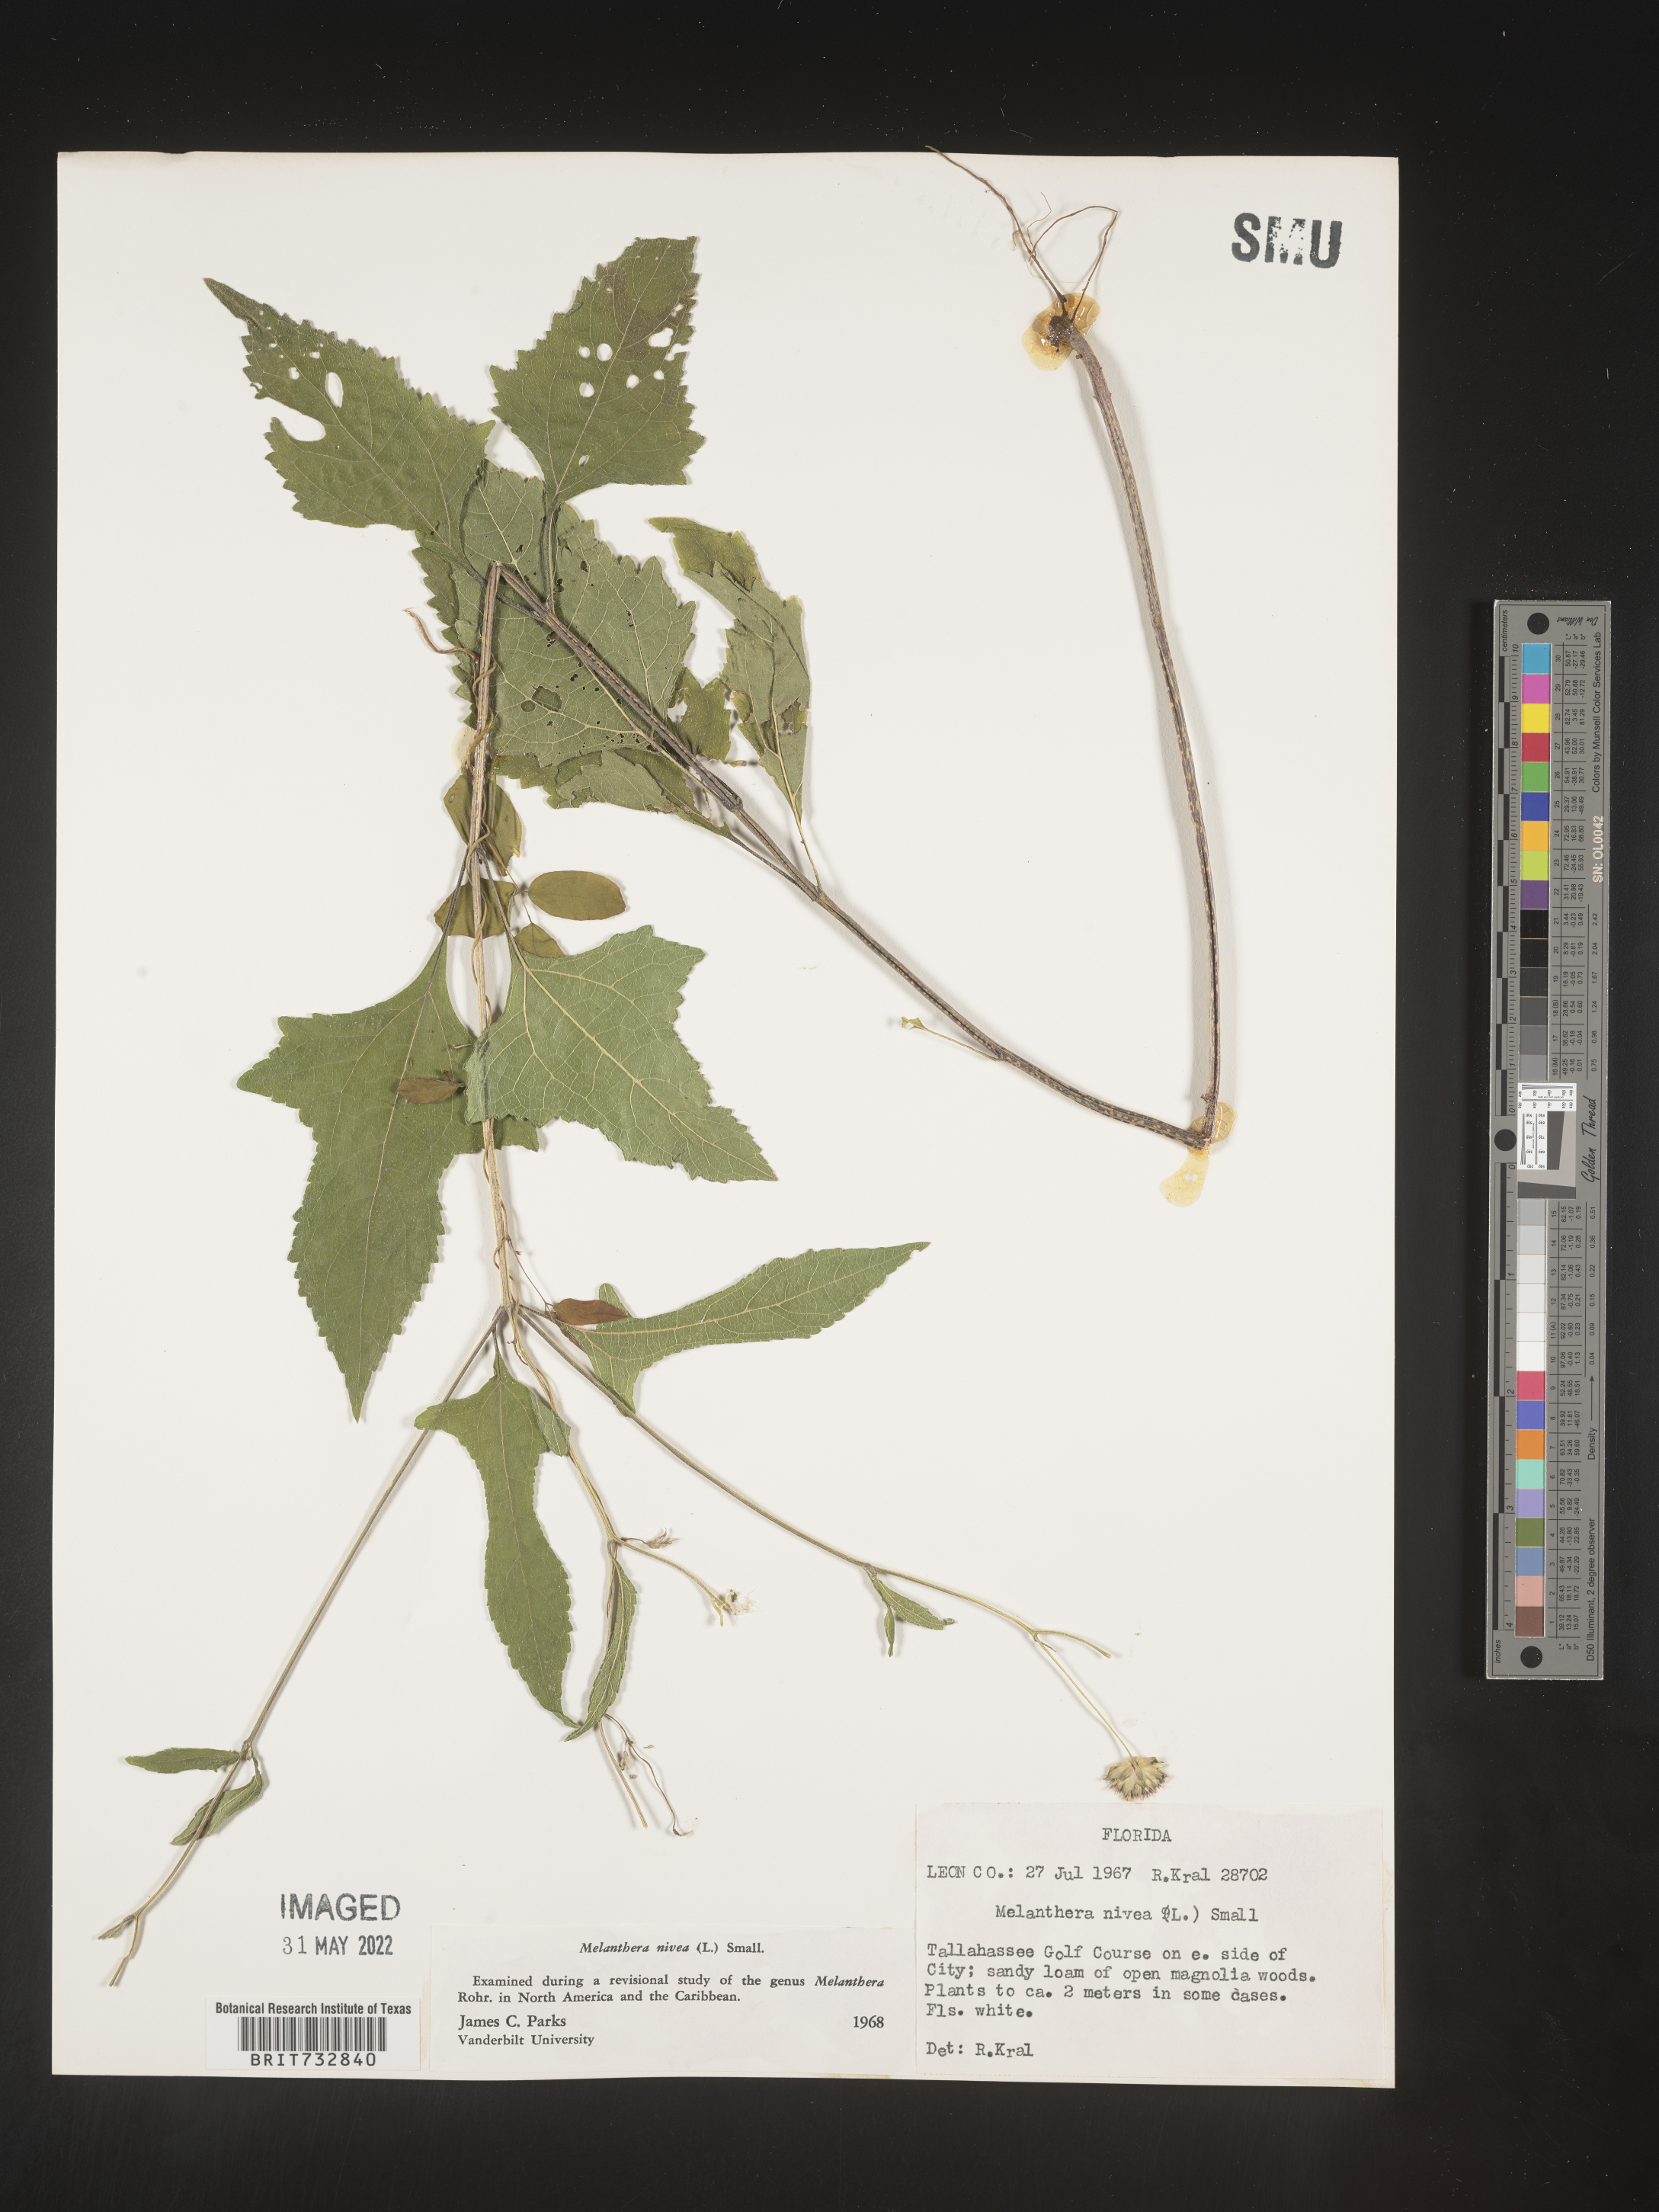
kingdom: Plantae
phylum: Tracheophyta
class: Magnoliopsida
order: Asterales
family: Asteraceae
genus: Melanthera
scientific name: Melanthera nivea
